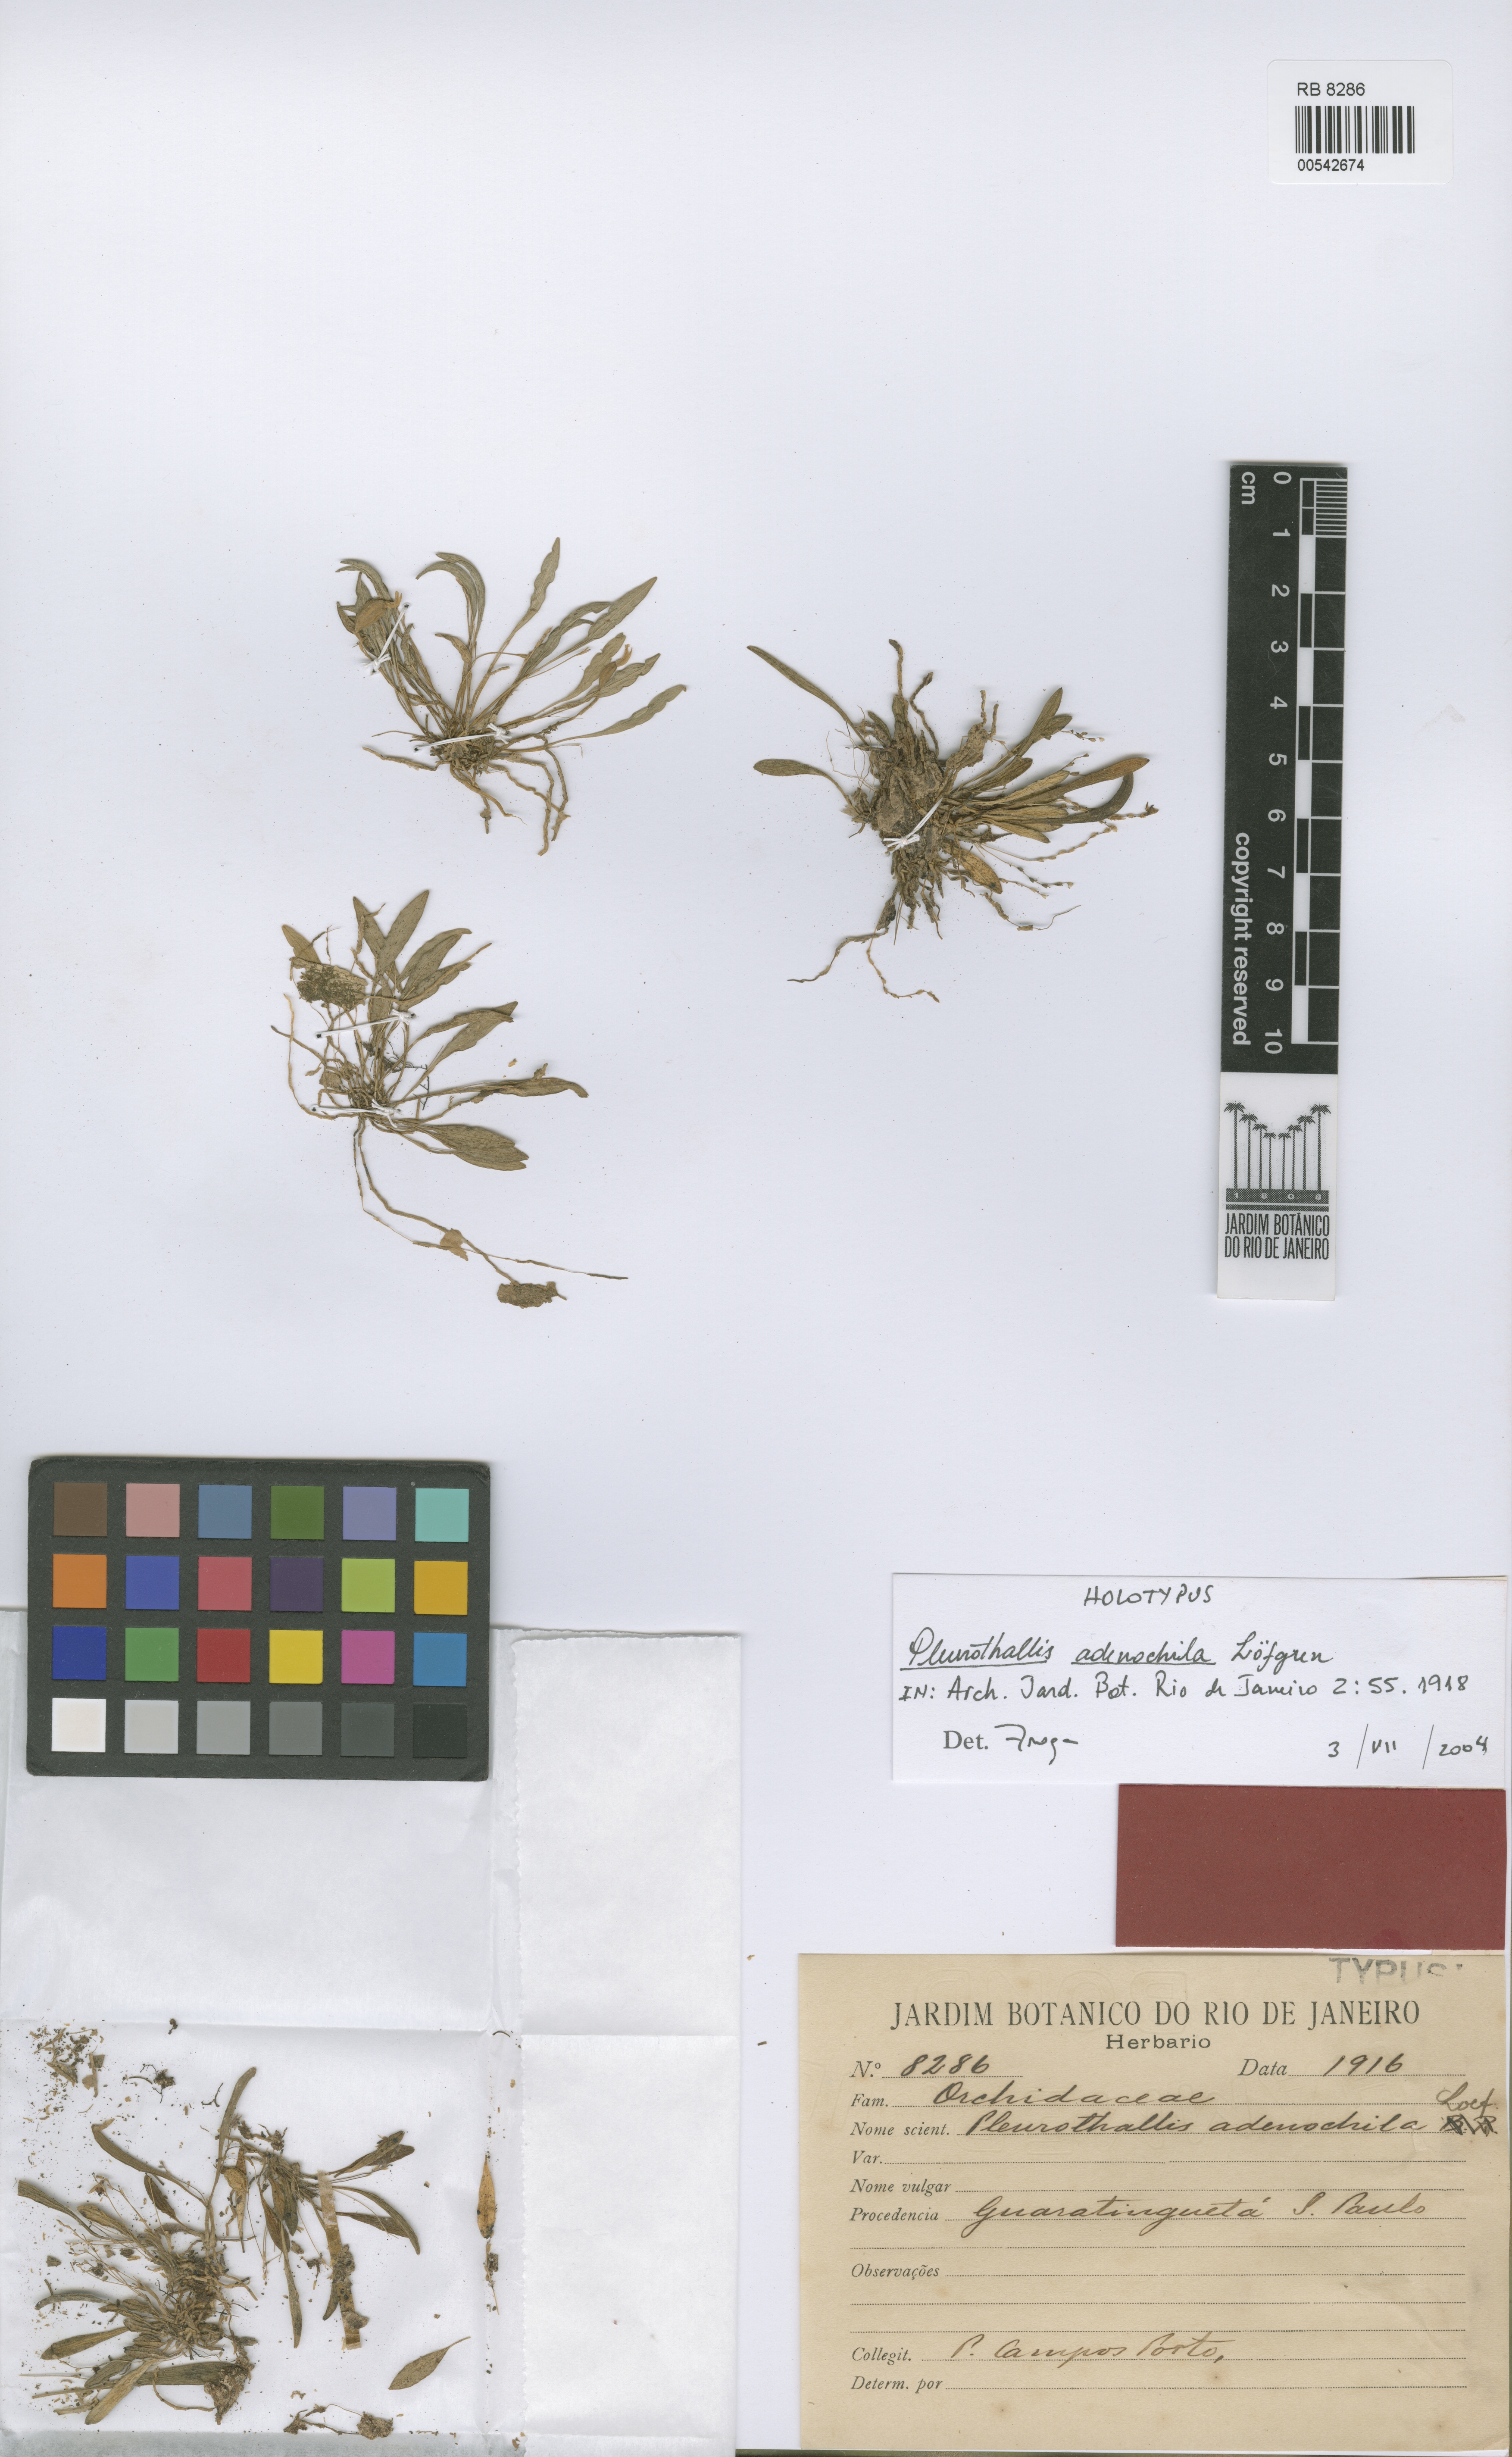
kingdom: Plantae
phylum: Tracheophyta
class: Liliopsida
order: Asparagales
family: Orchidaceae
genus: Anathallis
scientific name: Anathallis adenochila
